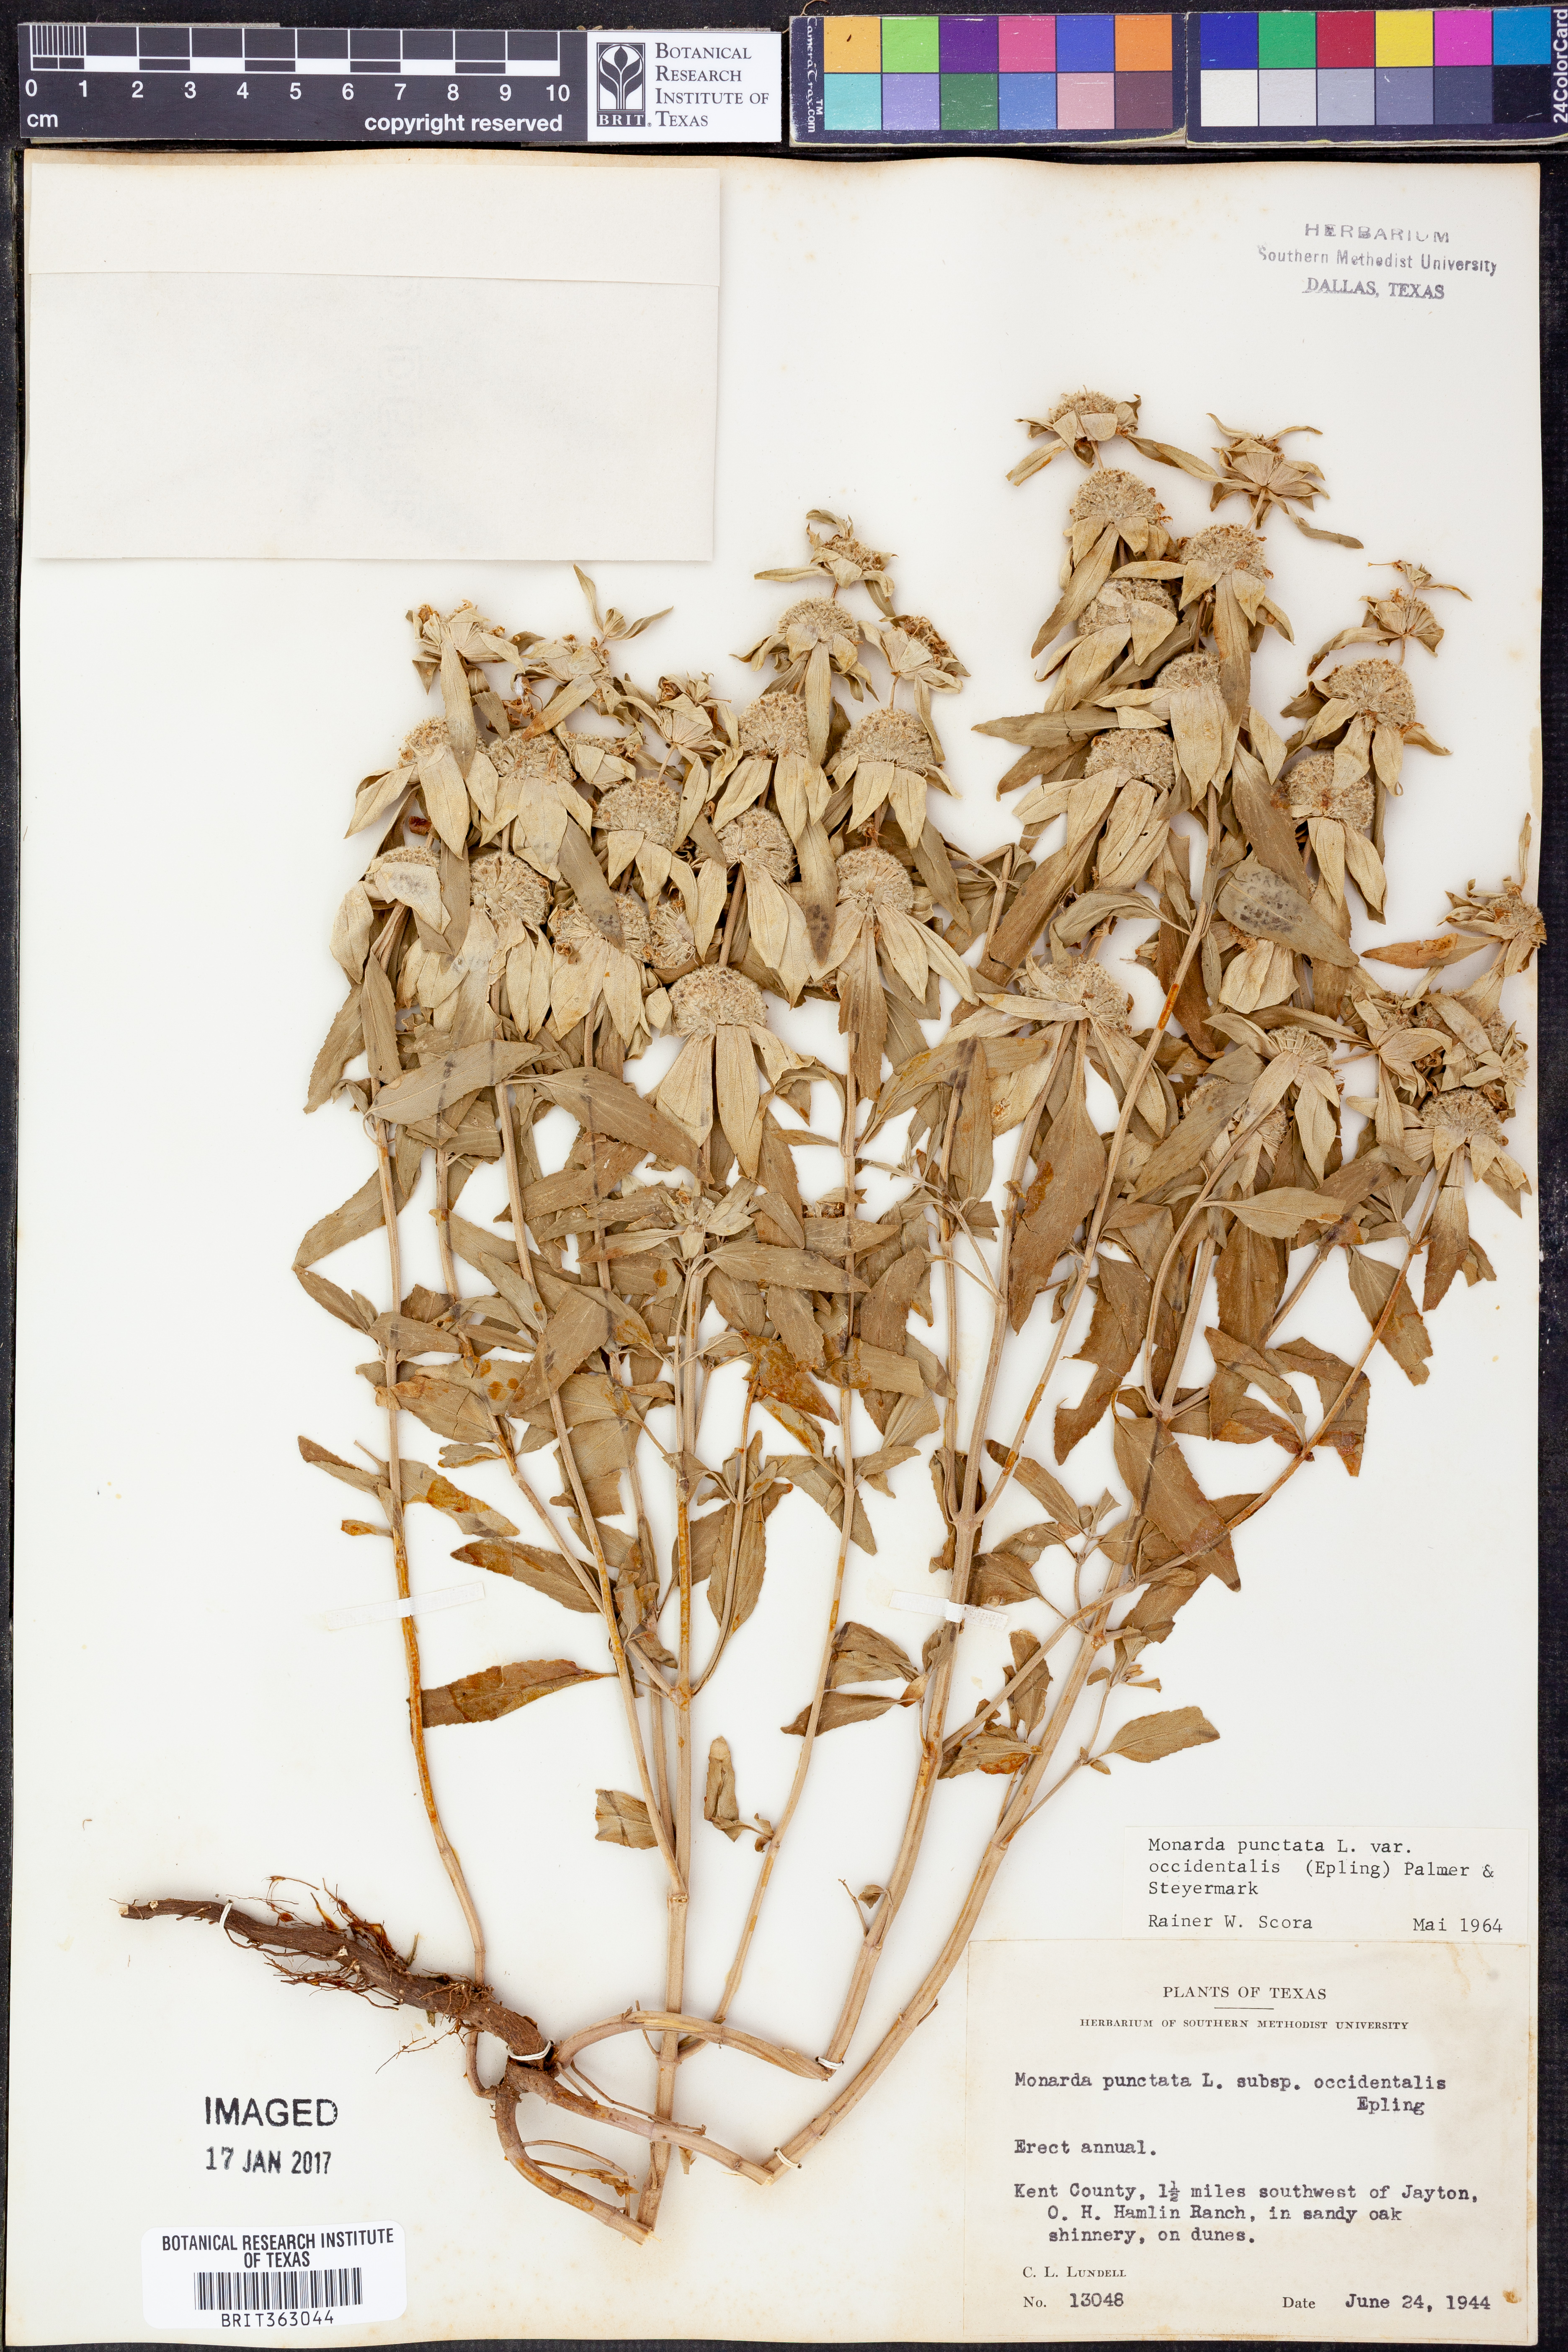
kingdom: Plantae
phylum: Tracheophyta
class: Magnoliopsida
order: Lamiales
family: Lamiaceae
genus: Monarda
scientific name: Monarda punctata
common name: Dotted monarda
